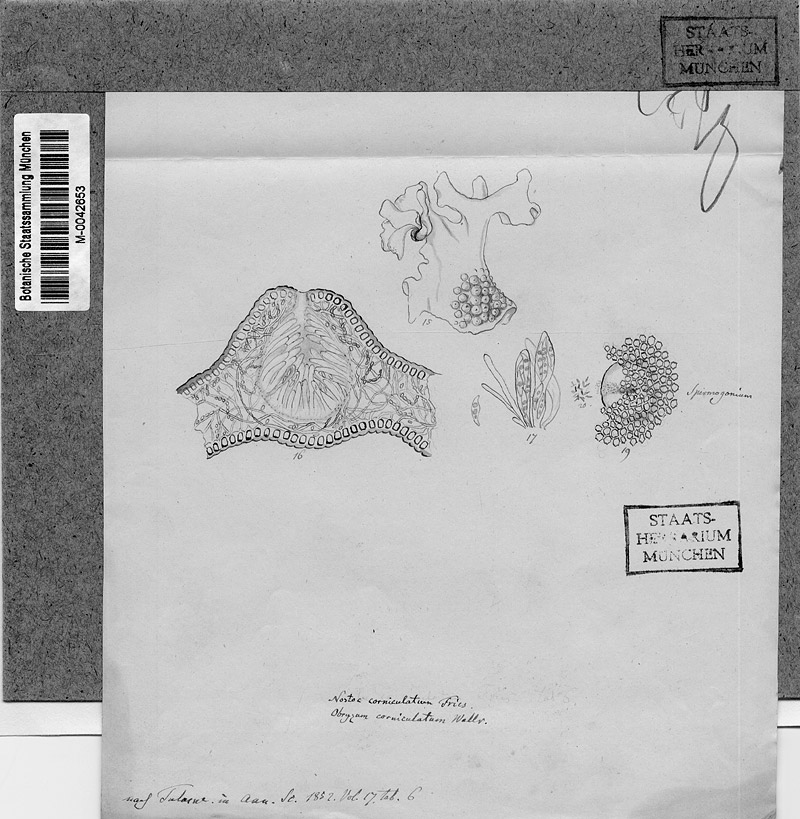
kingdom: Fungi
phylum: Ascomycota
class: Sordariomycetes
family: Obryzaceae
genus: Obryzum
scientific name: Obryzum corniculatum
